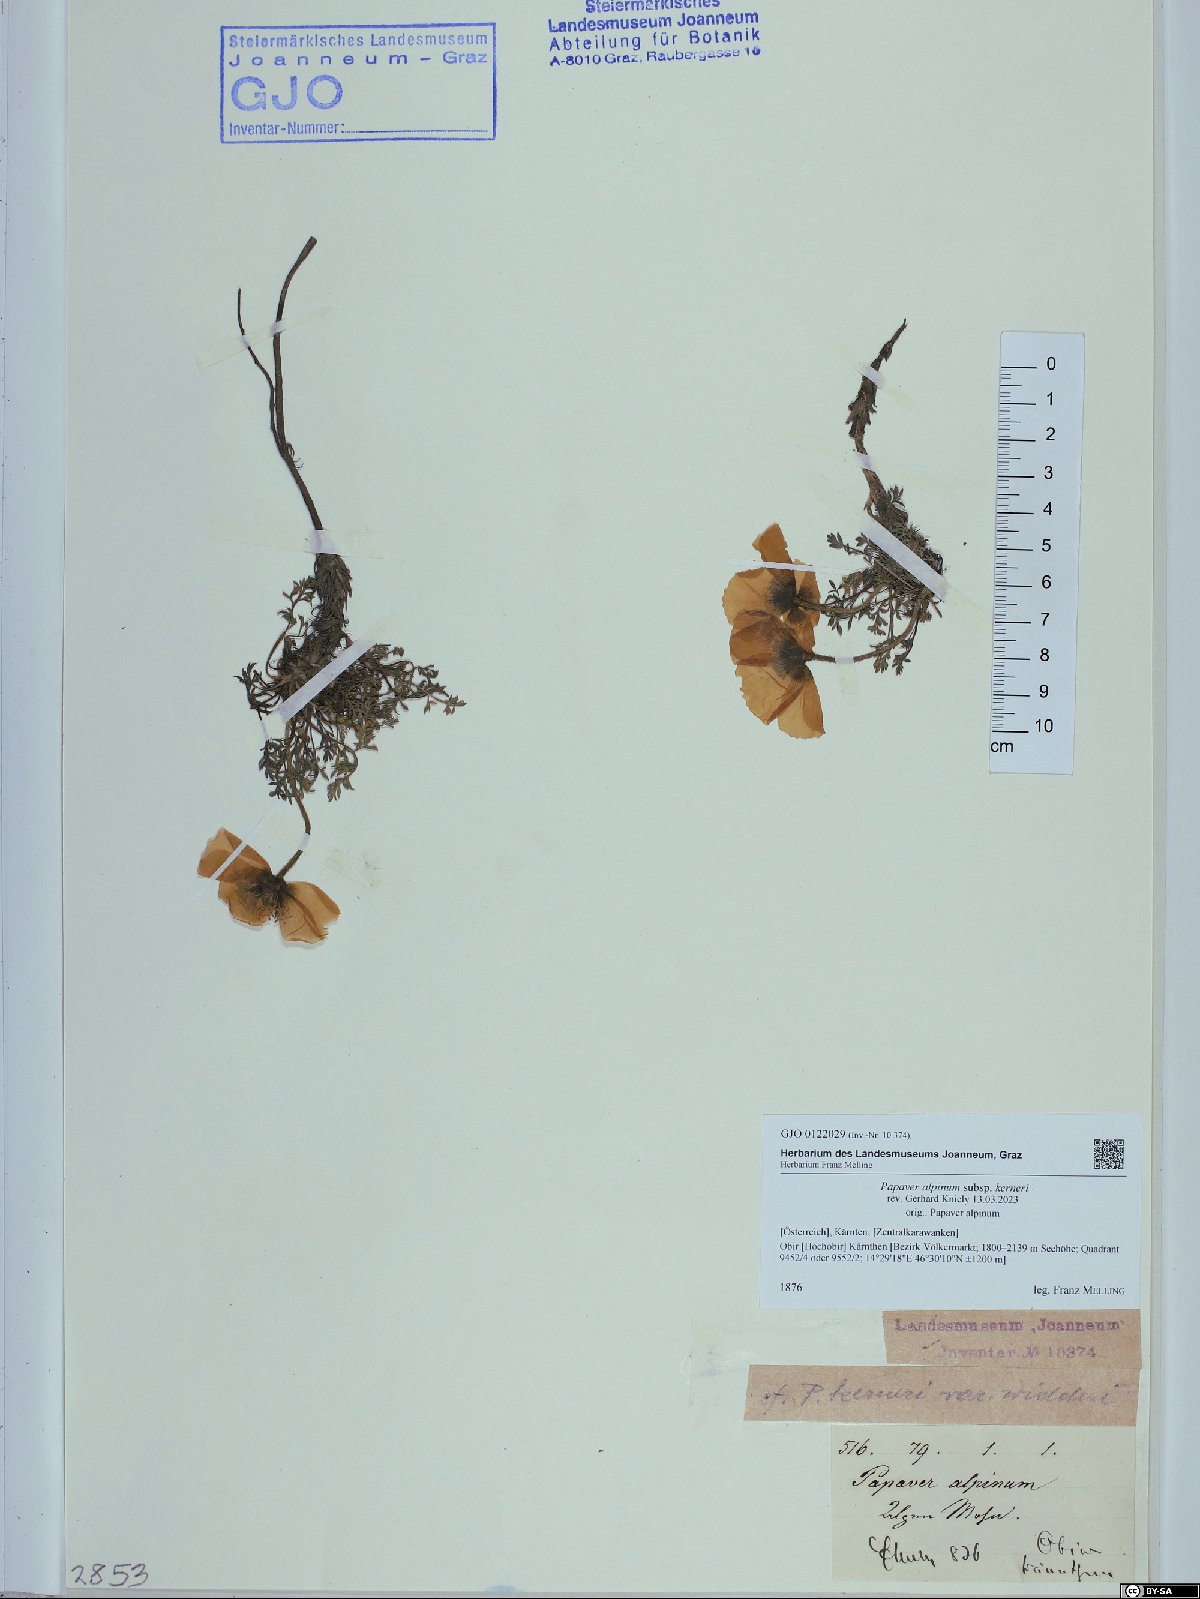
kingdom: Plantae
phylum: Tracheophyta
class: Magnoliopsida
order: Ranunculales
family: Papaveraceae
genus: Papaver
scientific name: Papaver alpinum
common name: Austrian poppy
